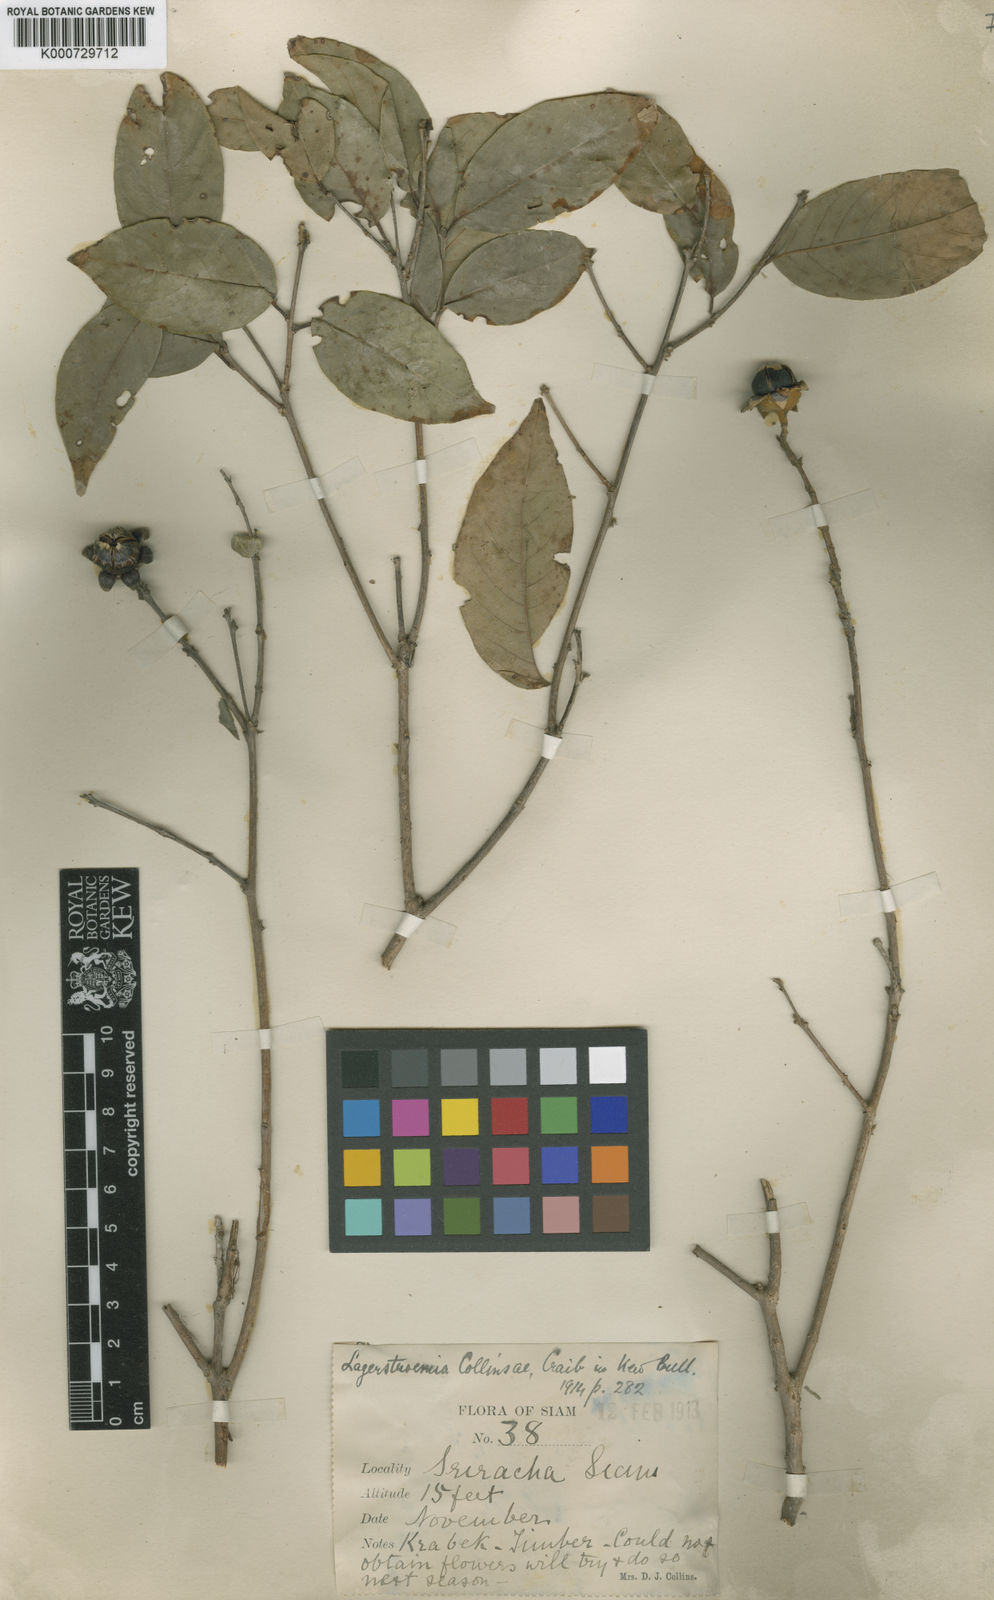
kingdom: Plantae
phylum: Tracheophyta
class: Magnoliopsida
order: Myrtales
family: Lythraceae
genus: Lagerstroemia
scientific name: Lagerstroemia cochinchinensis
